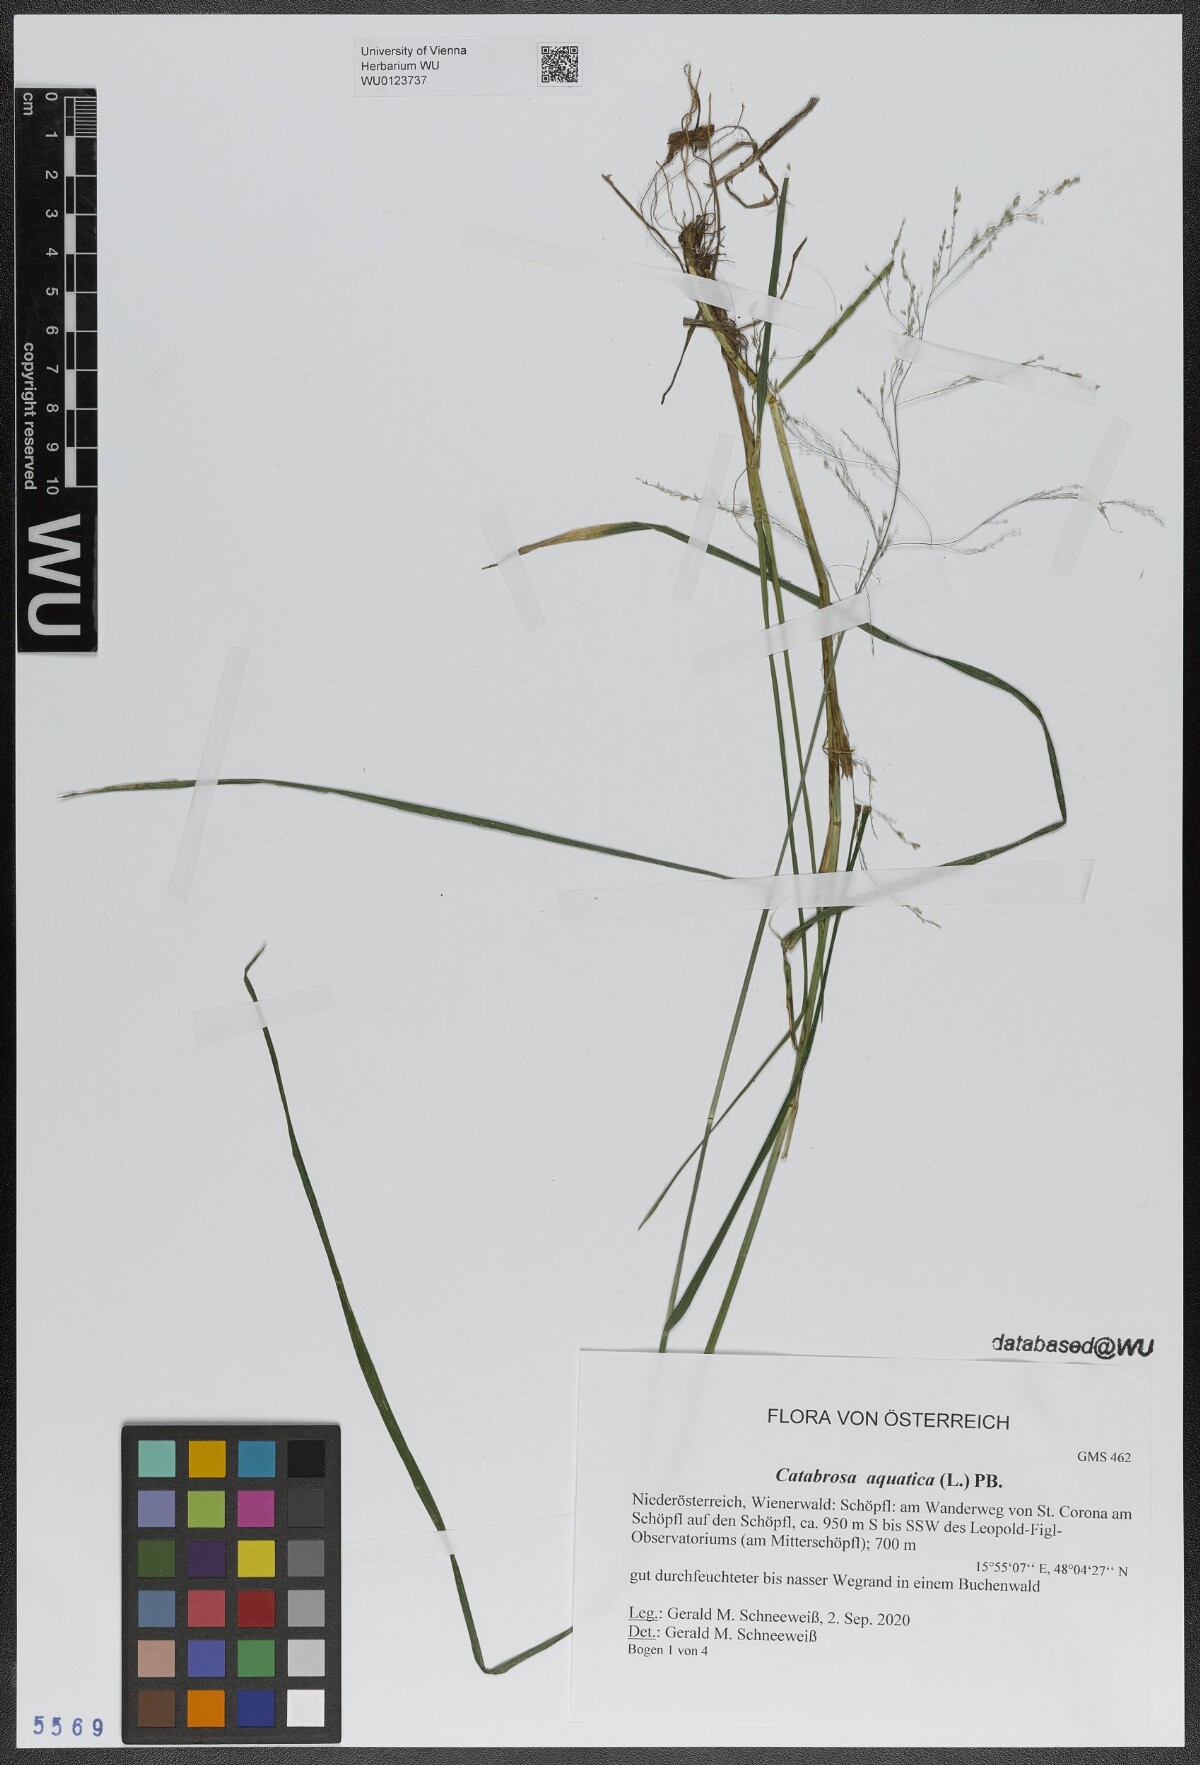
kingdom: Plantae
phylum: Tracheophyta
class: Liliopsida
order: Poales
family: Poaceae
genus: Catabrosa
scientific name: Catabrosa aquatica
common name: Whorl-grass
